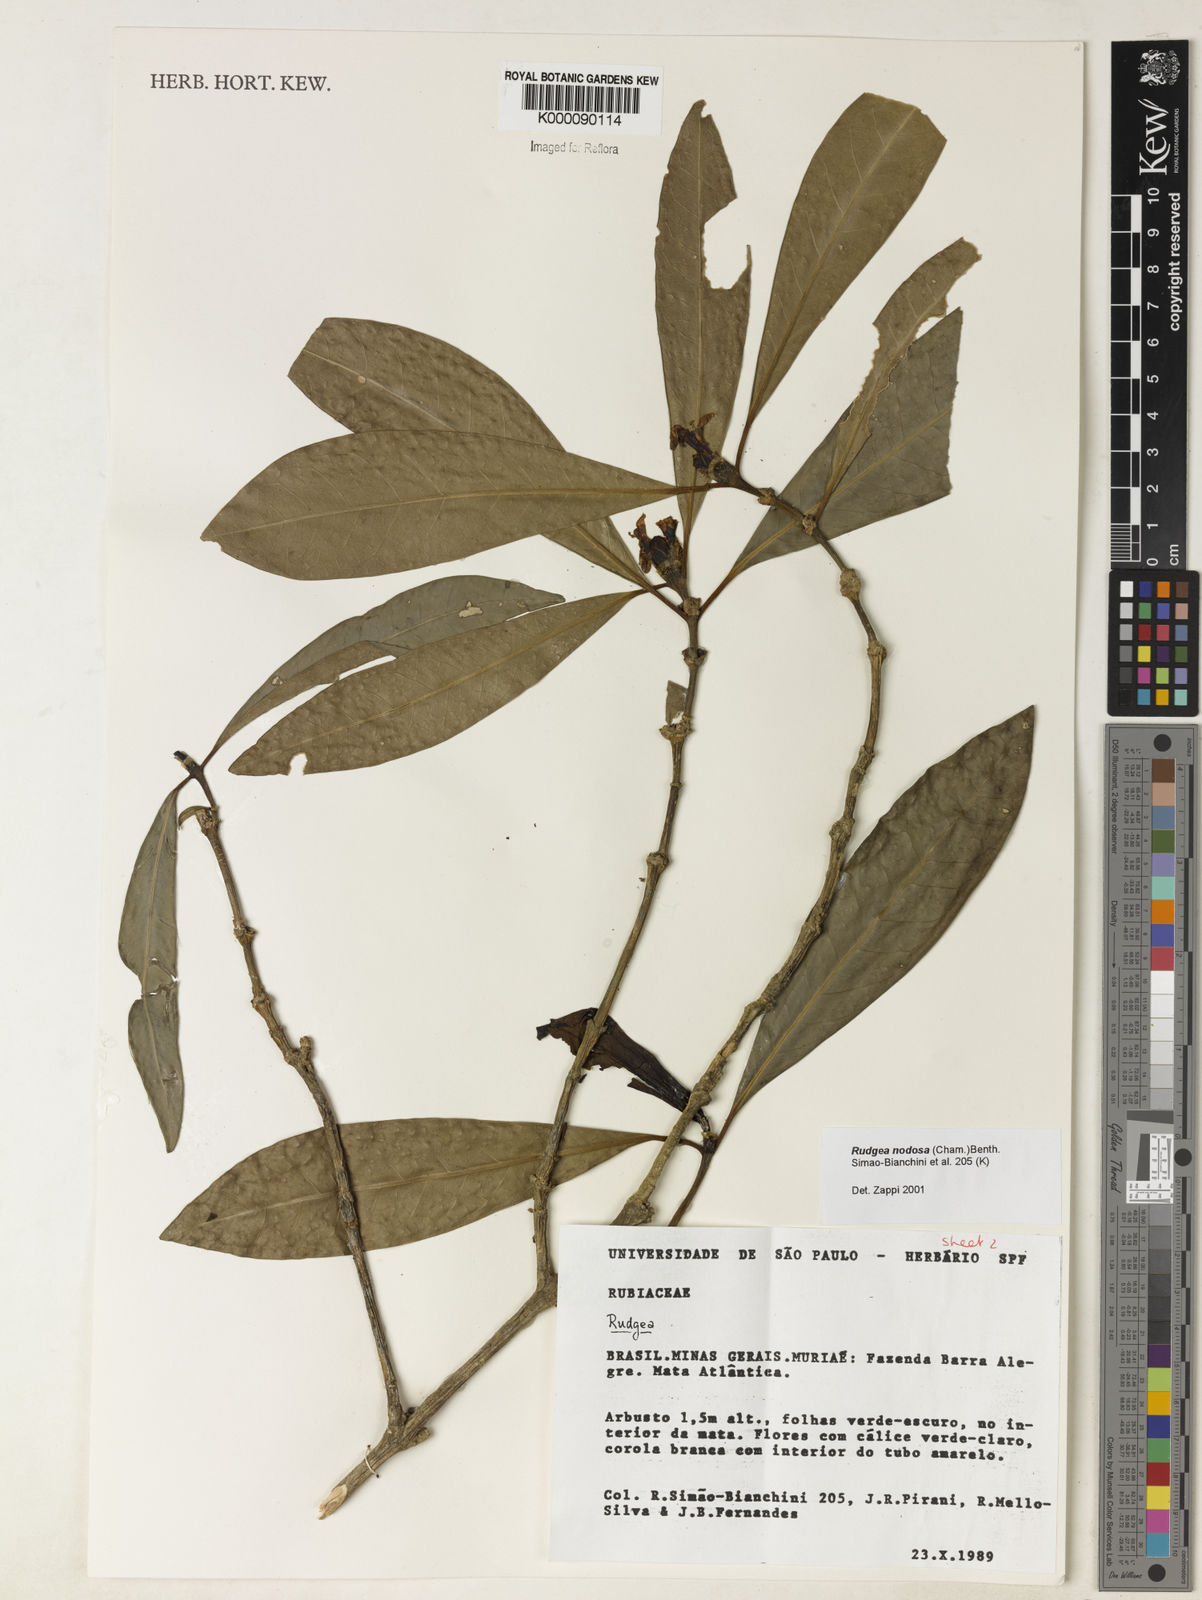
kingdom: Plantae
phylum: Tracheophyta
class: Magnoliopsida
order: Gentianales
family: Rubiaceae
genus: Rudgea
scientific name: Rudgea nodosa
